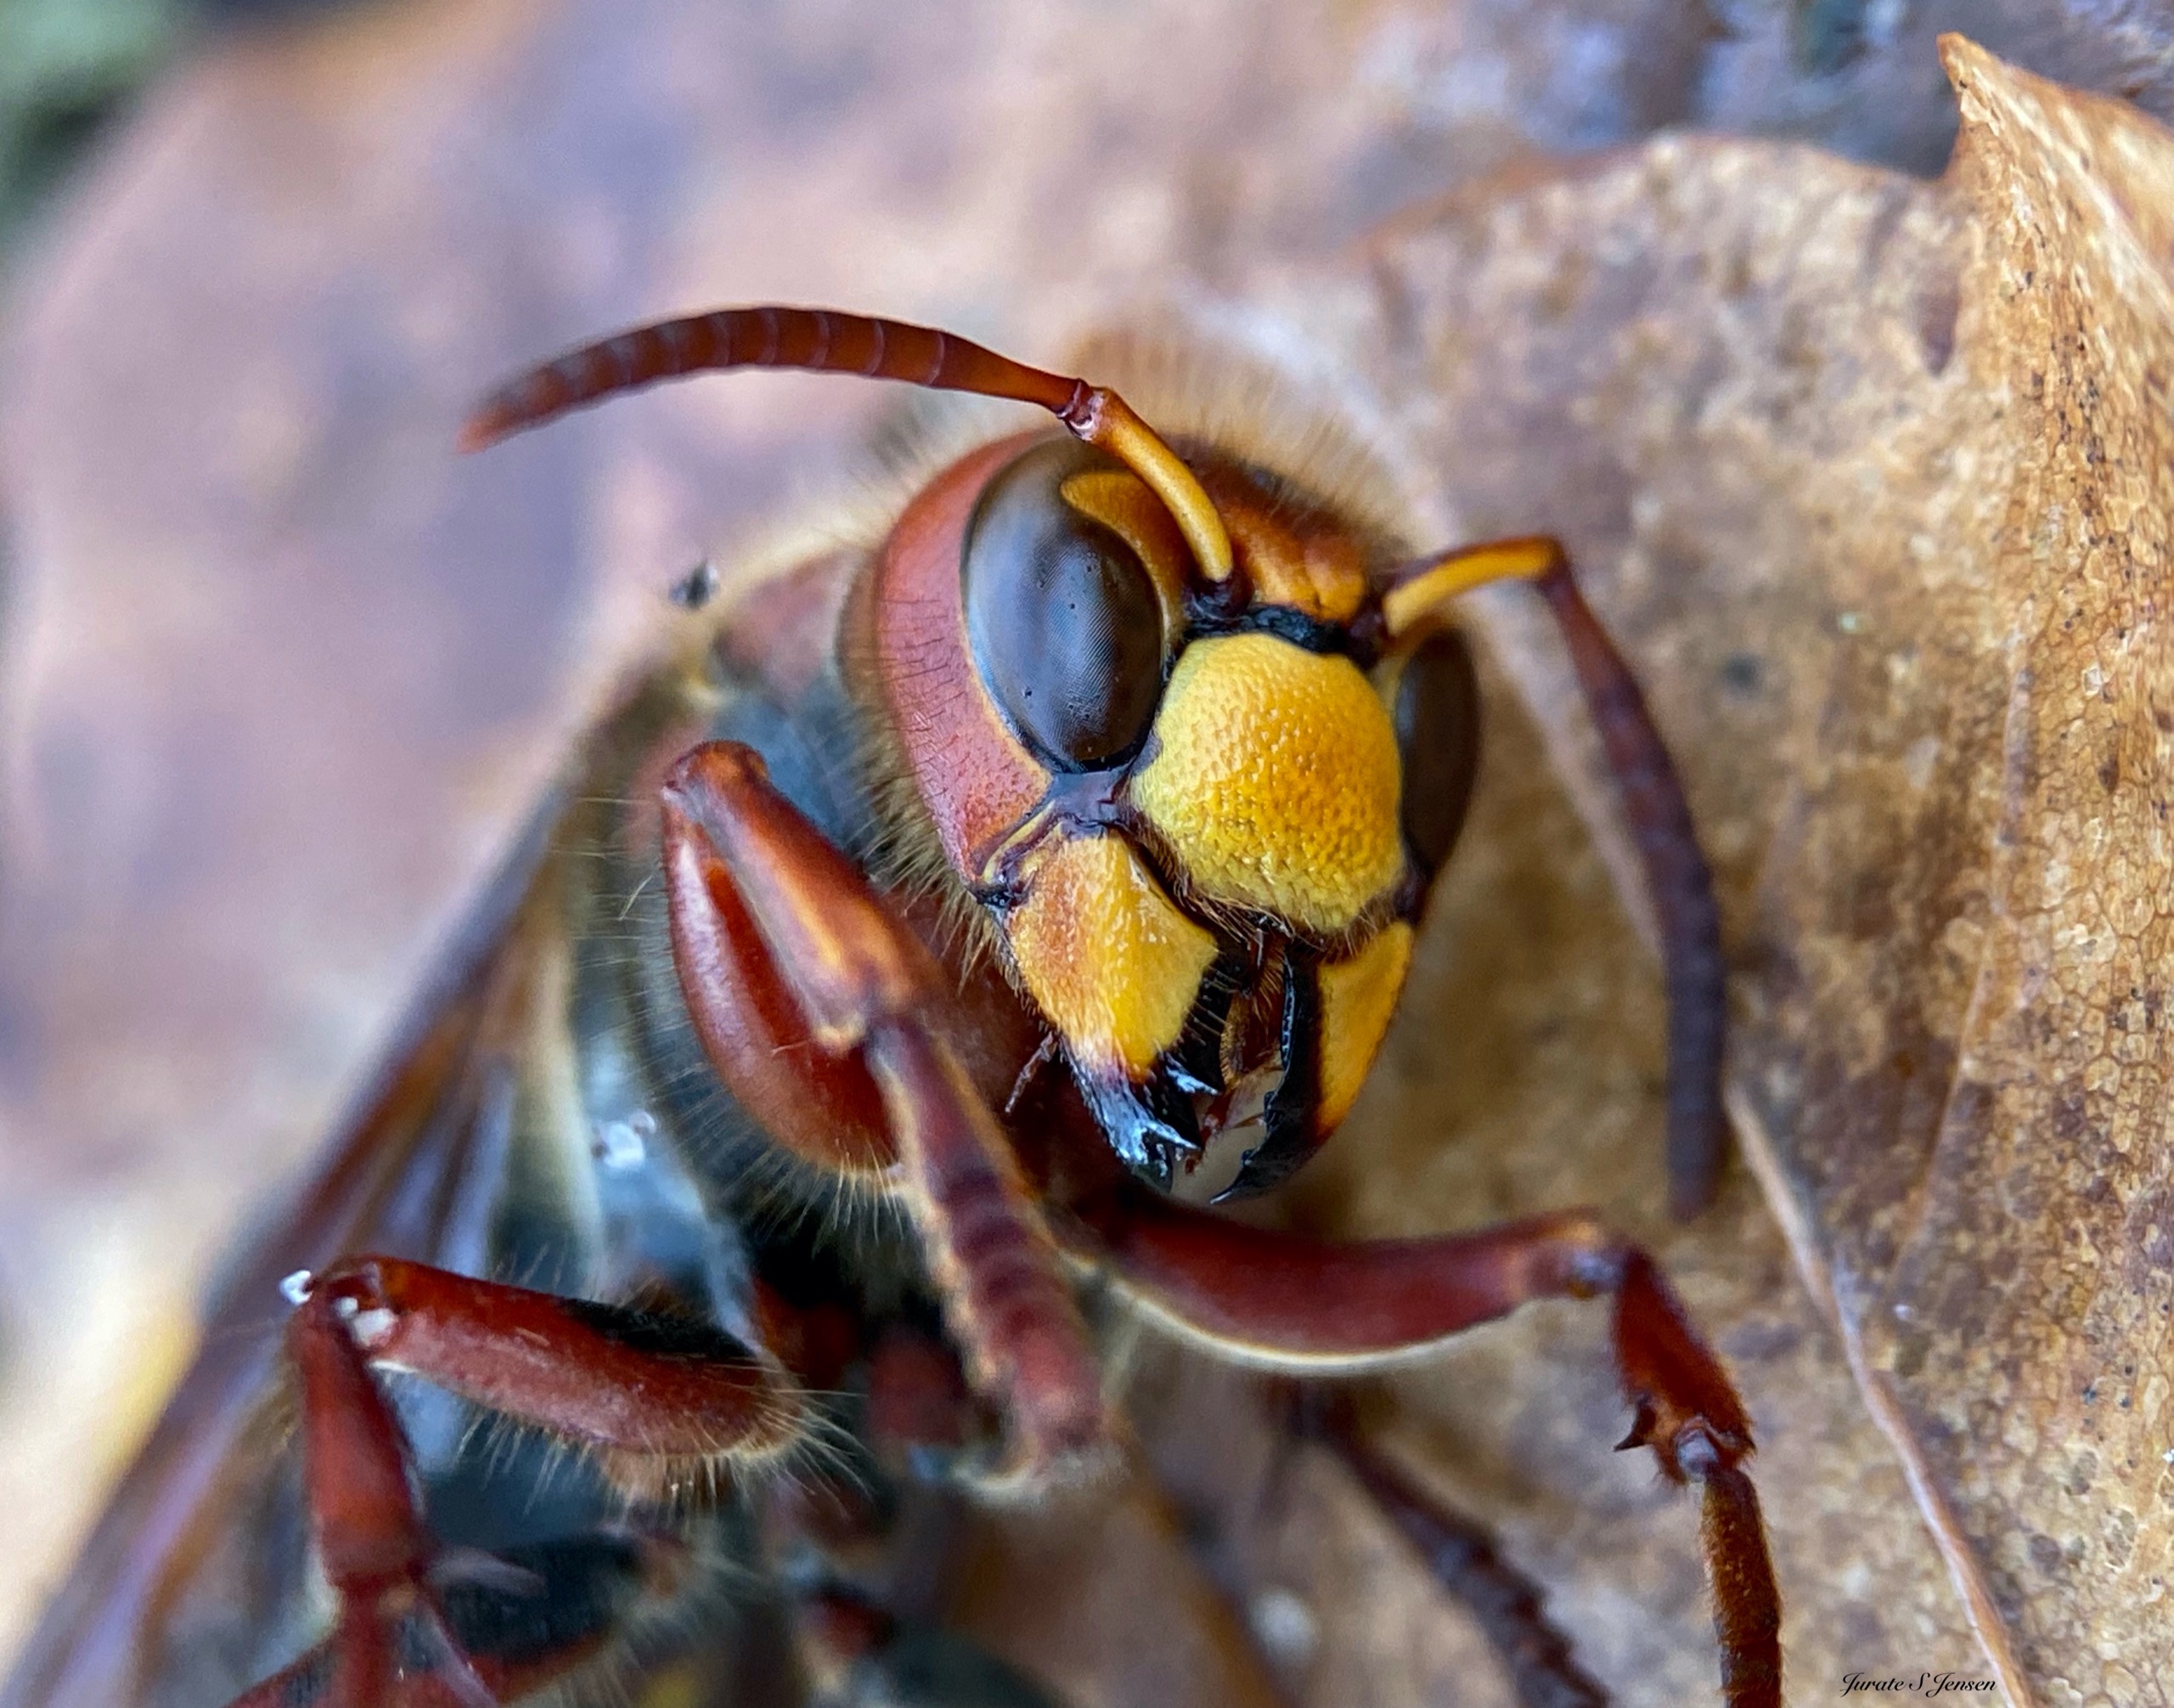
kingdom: Animalia
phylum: Arthropoda
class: Insecta
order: Hymenoptera
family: Vespidae
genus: Vespa
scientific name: Vespa crabro
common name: Stor gedehams
